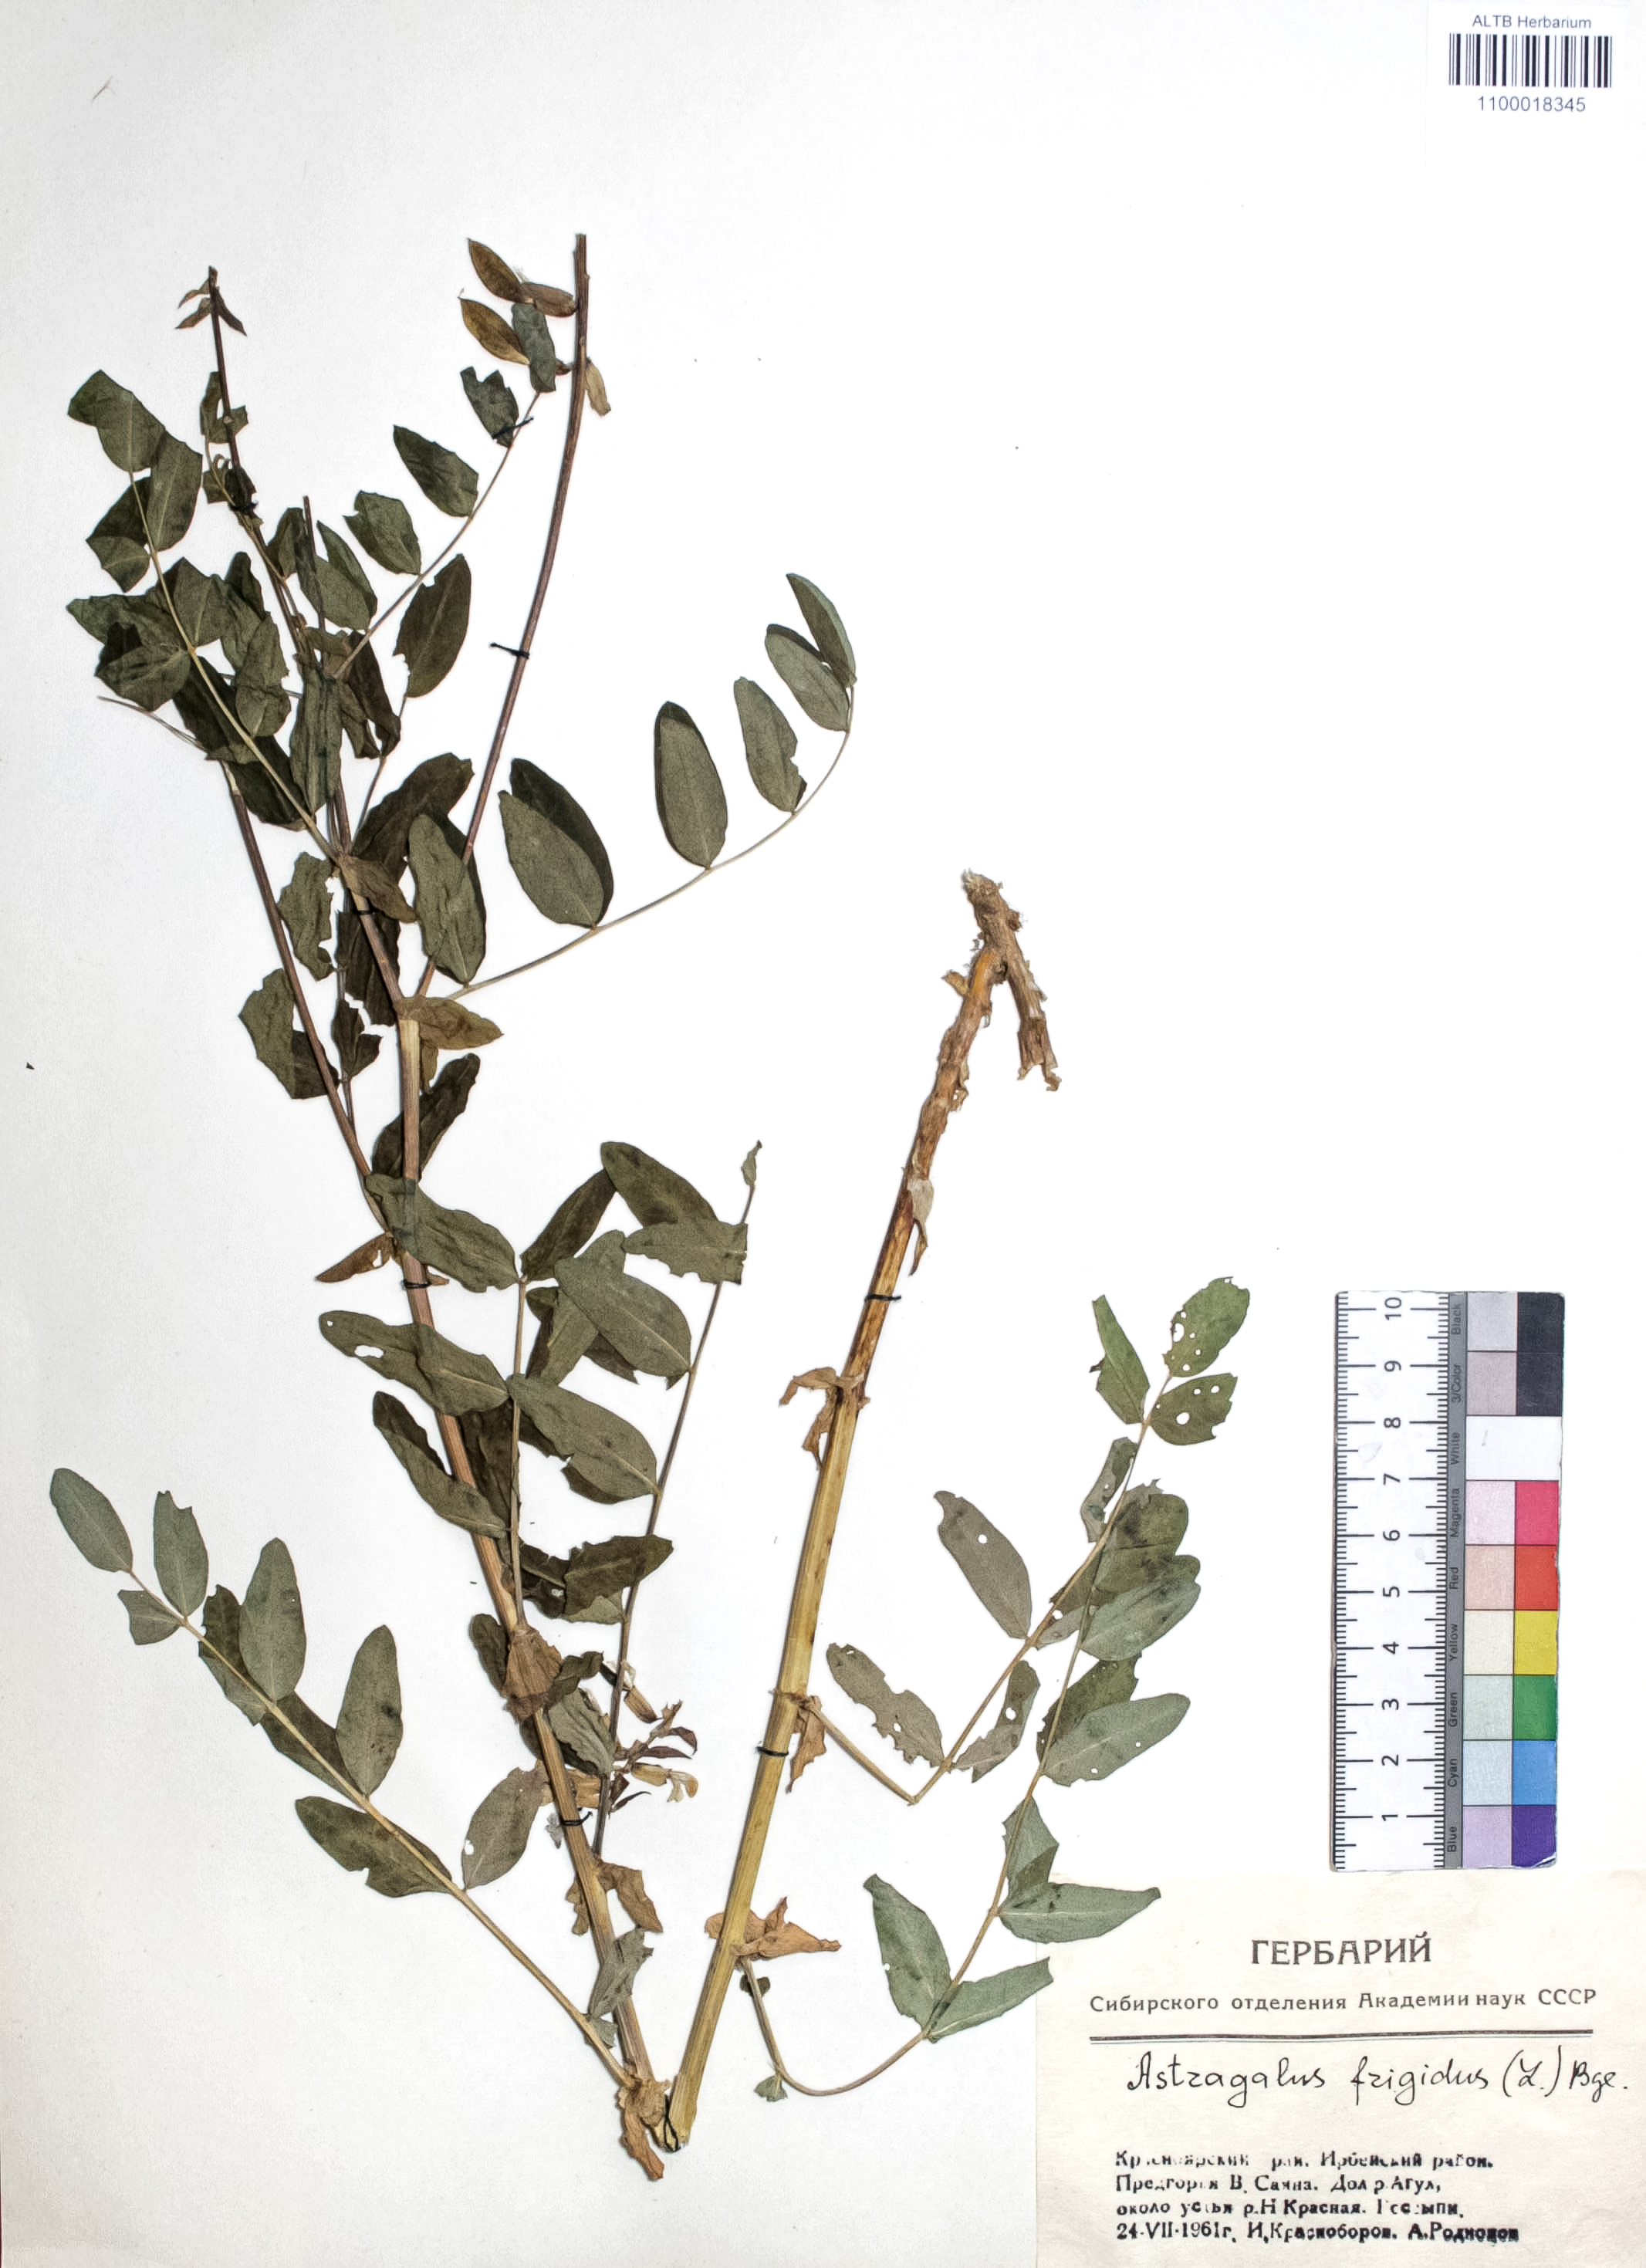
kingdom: Plantae
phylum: Tracheophyta
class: Magnoliopsida
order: Fabales
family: Fabaceae
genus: Astragalus
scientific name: Astragalus frigidus
